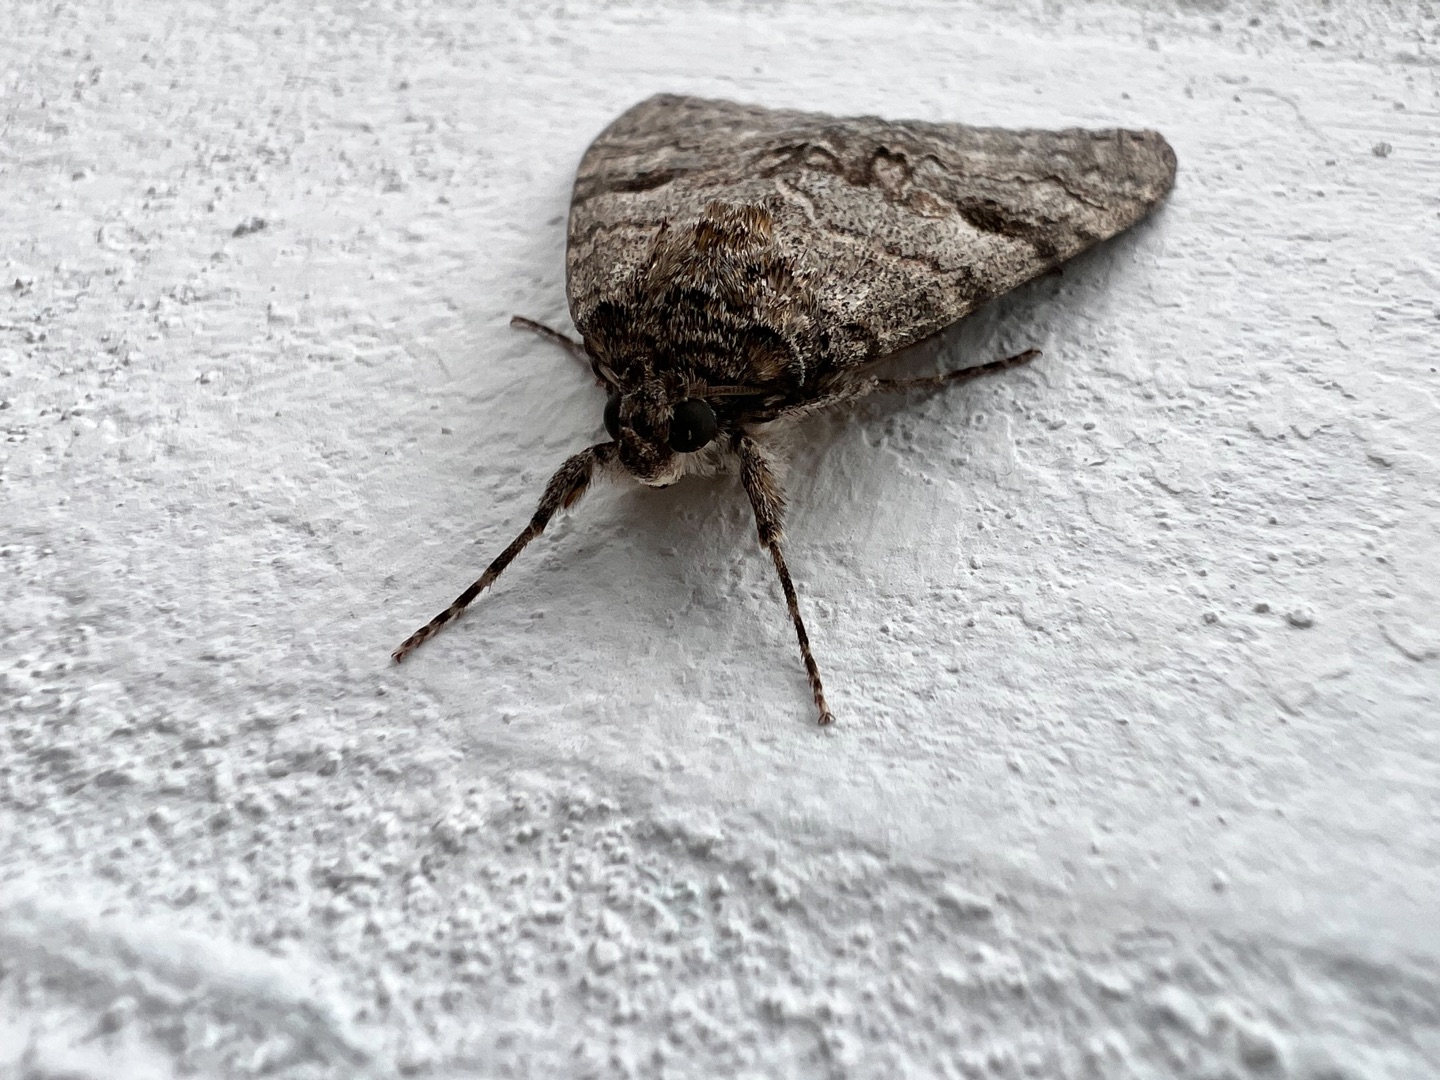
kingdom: Animalia
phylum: Arthropoda
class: Insecta
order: Lepidoptera
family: Erebidae
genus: Catocala
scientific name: Catocala nupta
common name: Rødt ordensbånd
